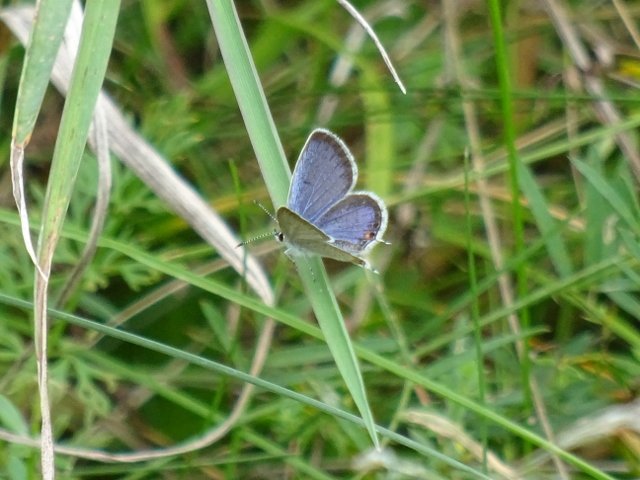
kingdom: Animalia
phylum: Arthropoda
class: Insecta
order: Lepidoptera
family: Lycaenidae
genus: Elkalyce
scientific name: Elkalyce comyntas
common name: Eastern Tailed-Blue
